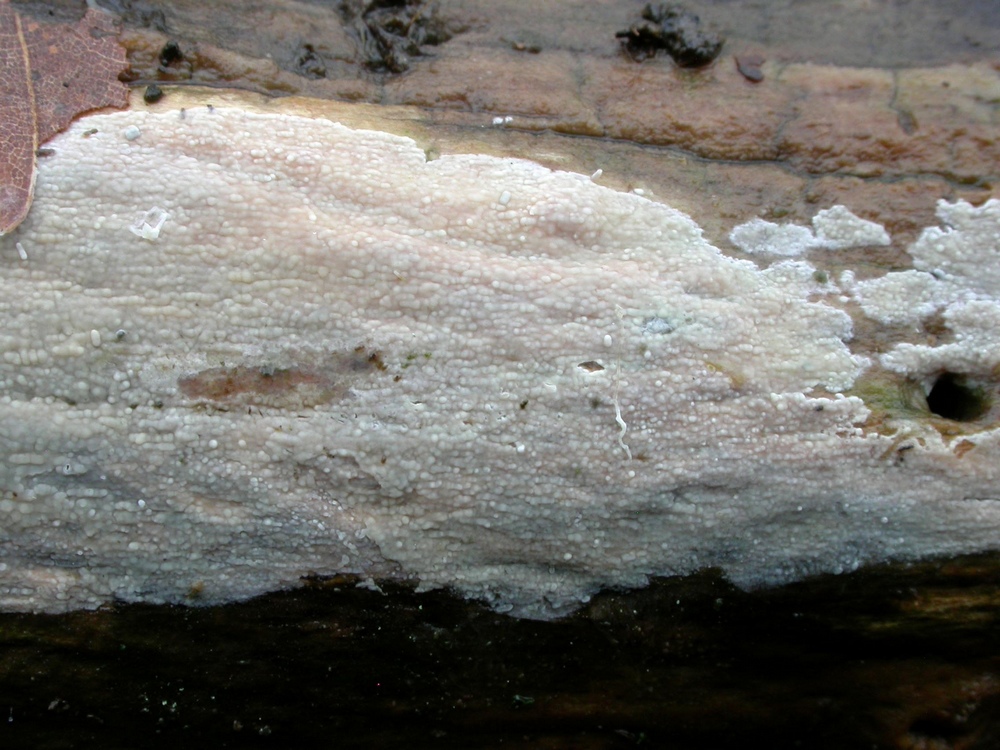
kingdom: Fungi
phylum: Basidiomycota
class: Agaricomycetes
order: Russulales
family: Stereaceae
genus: Gloeocystidiellum
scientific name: Gloeocystidiellum porosum
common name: mælkehvid olieskind
